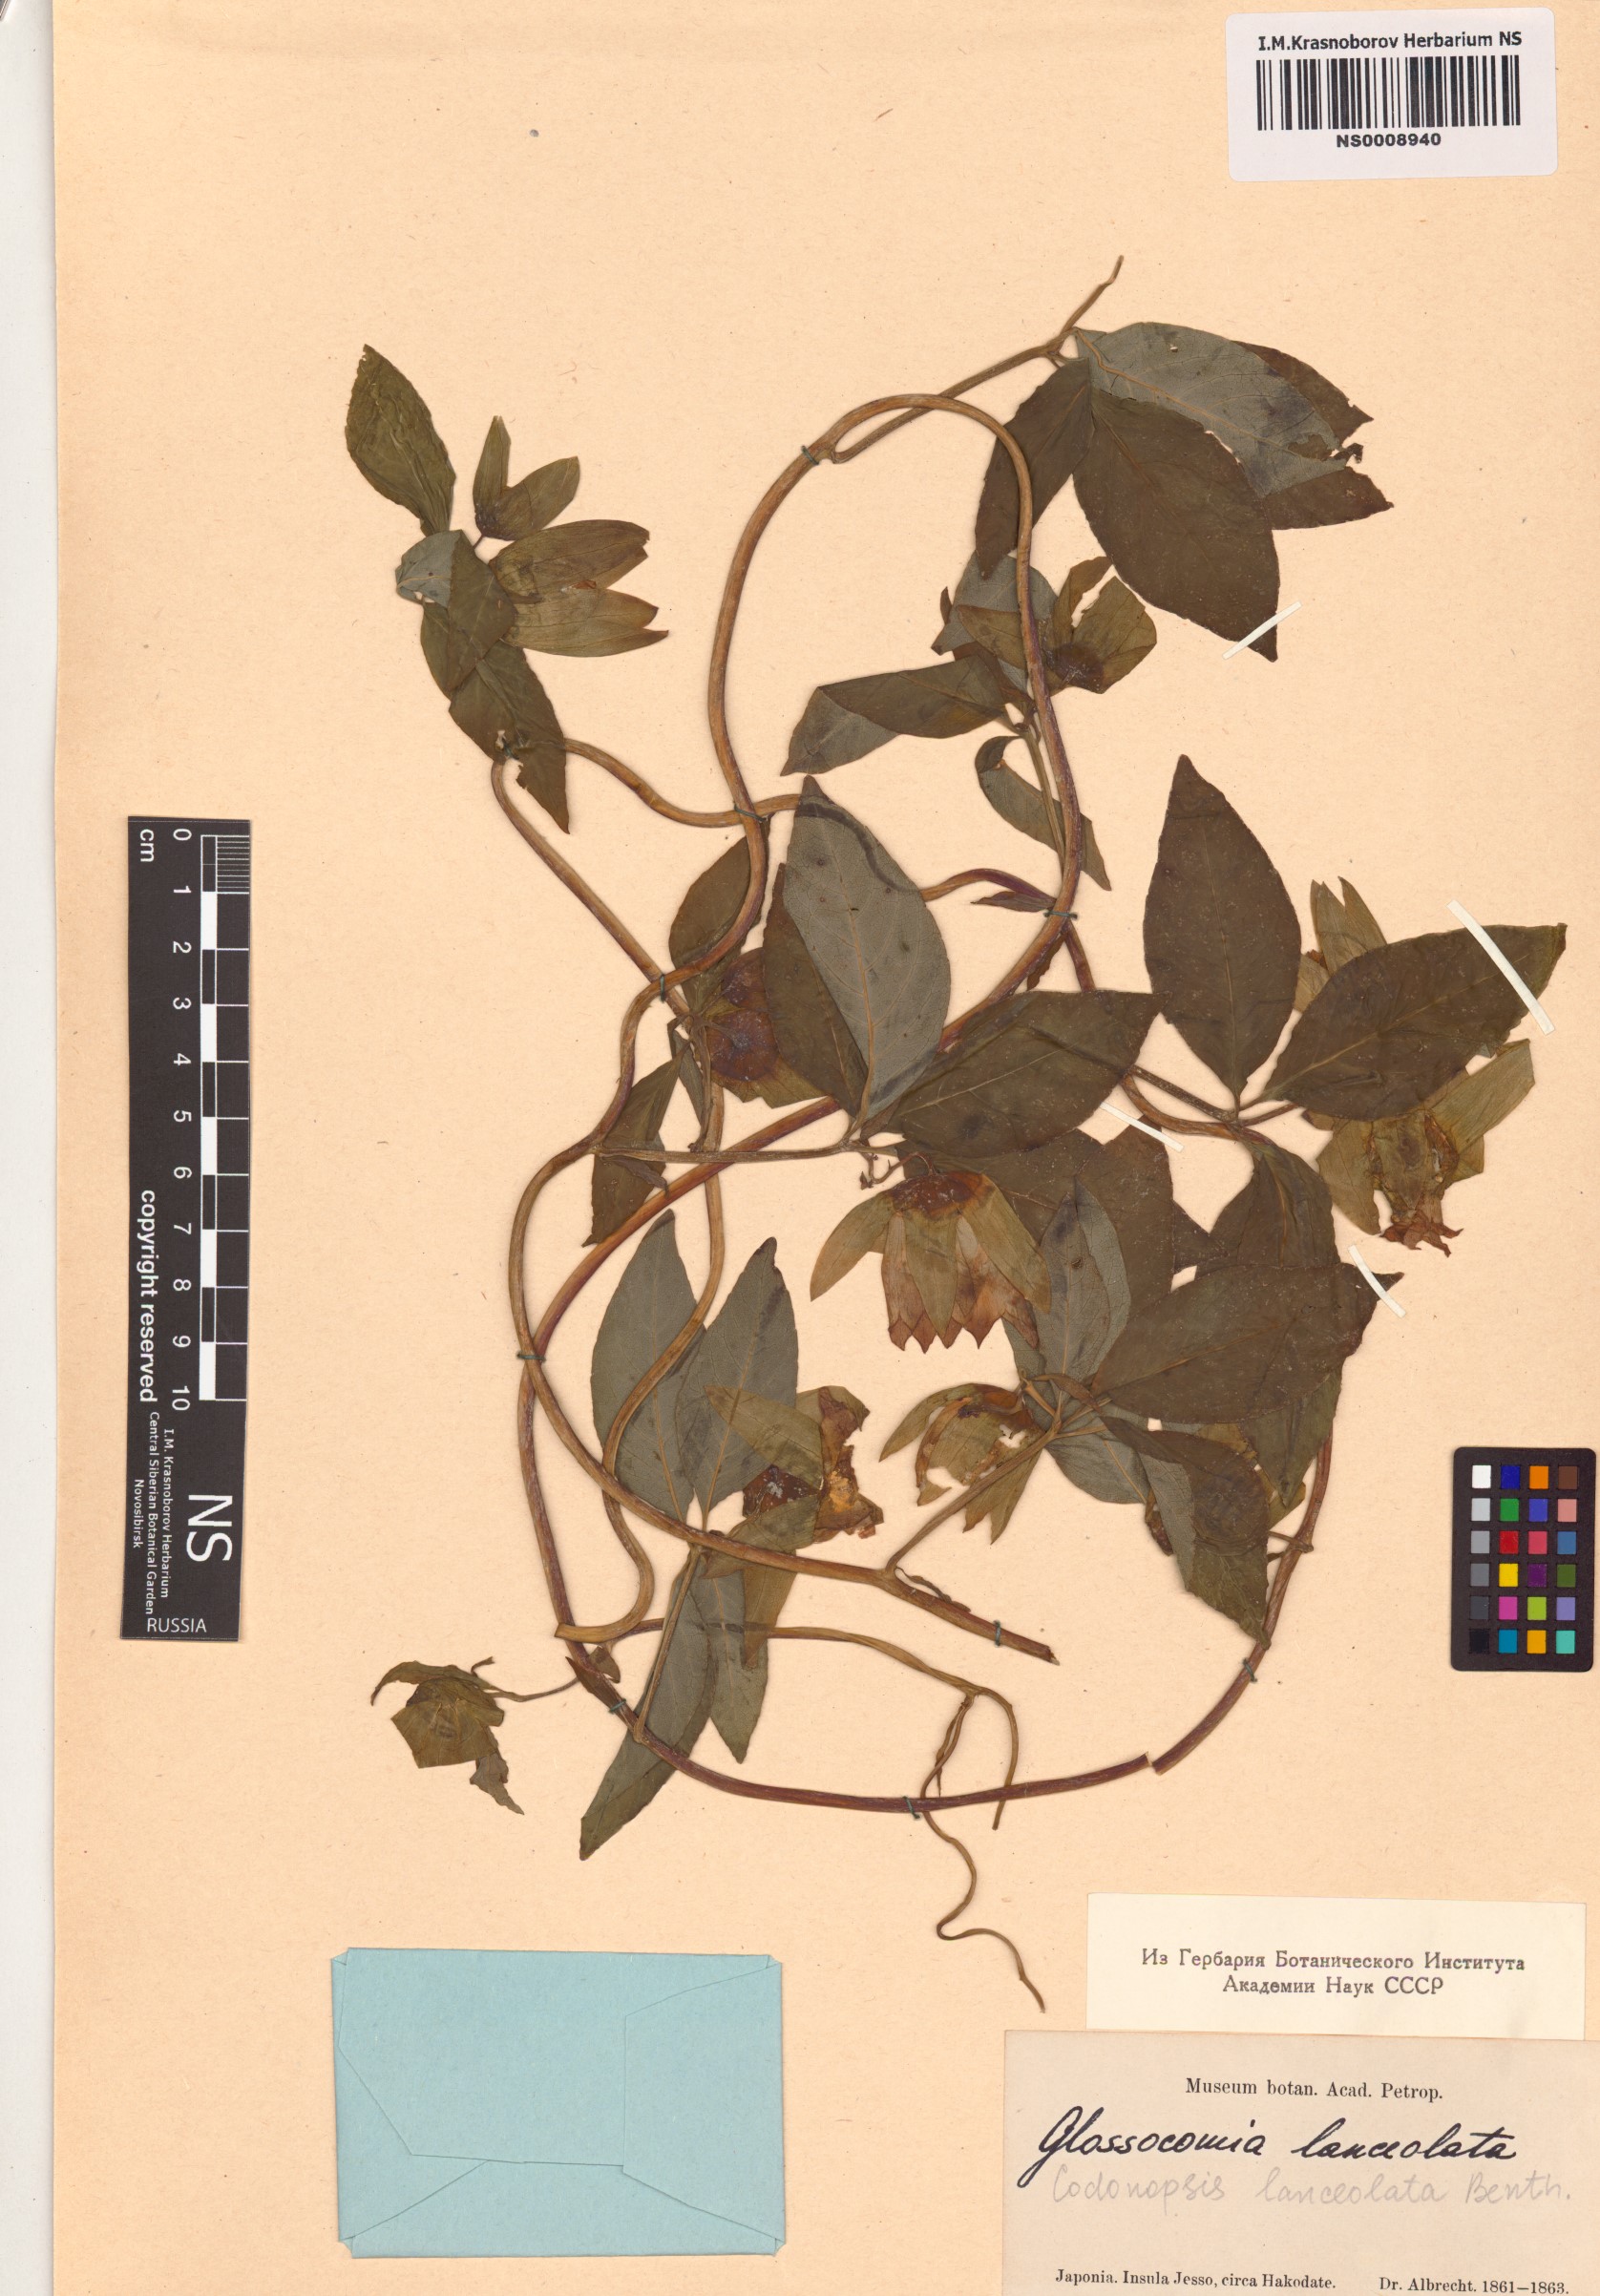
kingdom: Plantae
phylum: Tracheophyta
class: Magnoliopsida
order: Asterales
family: Campanulaceae
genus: Codonopsis
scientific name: Codonopsis lanceolata
